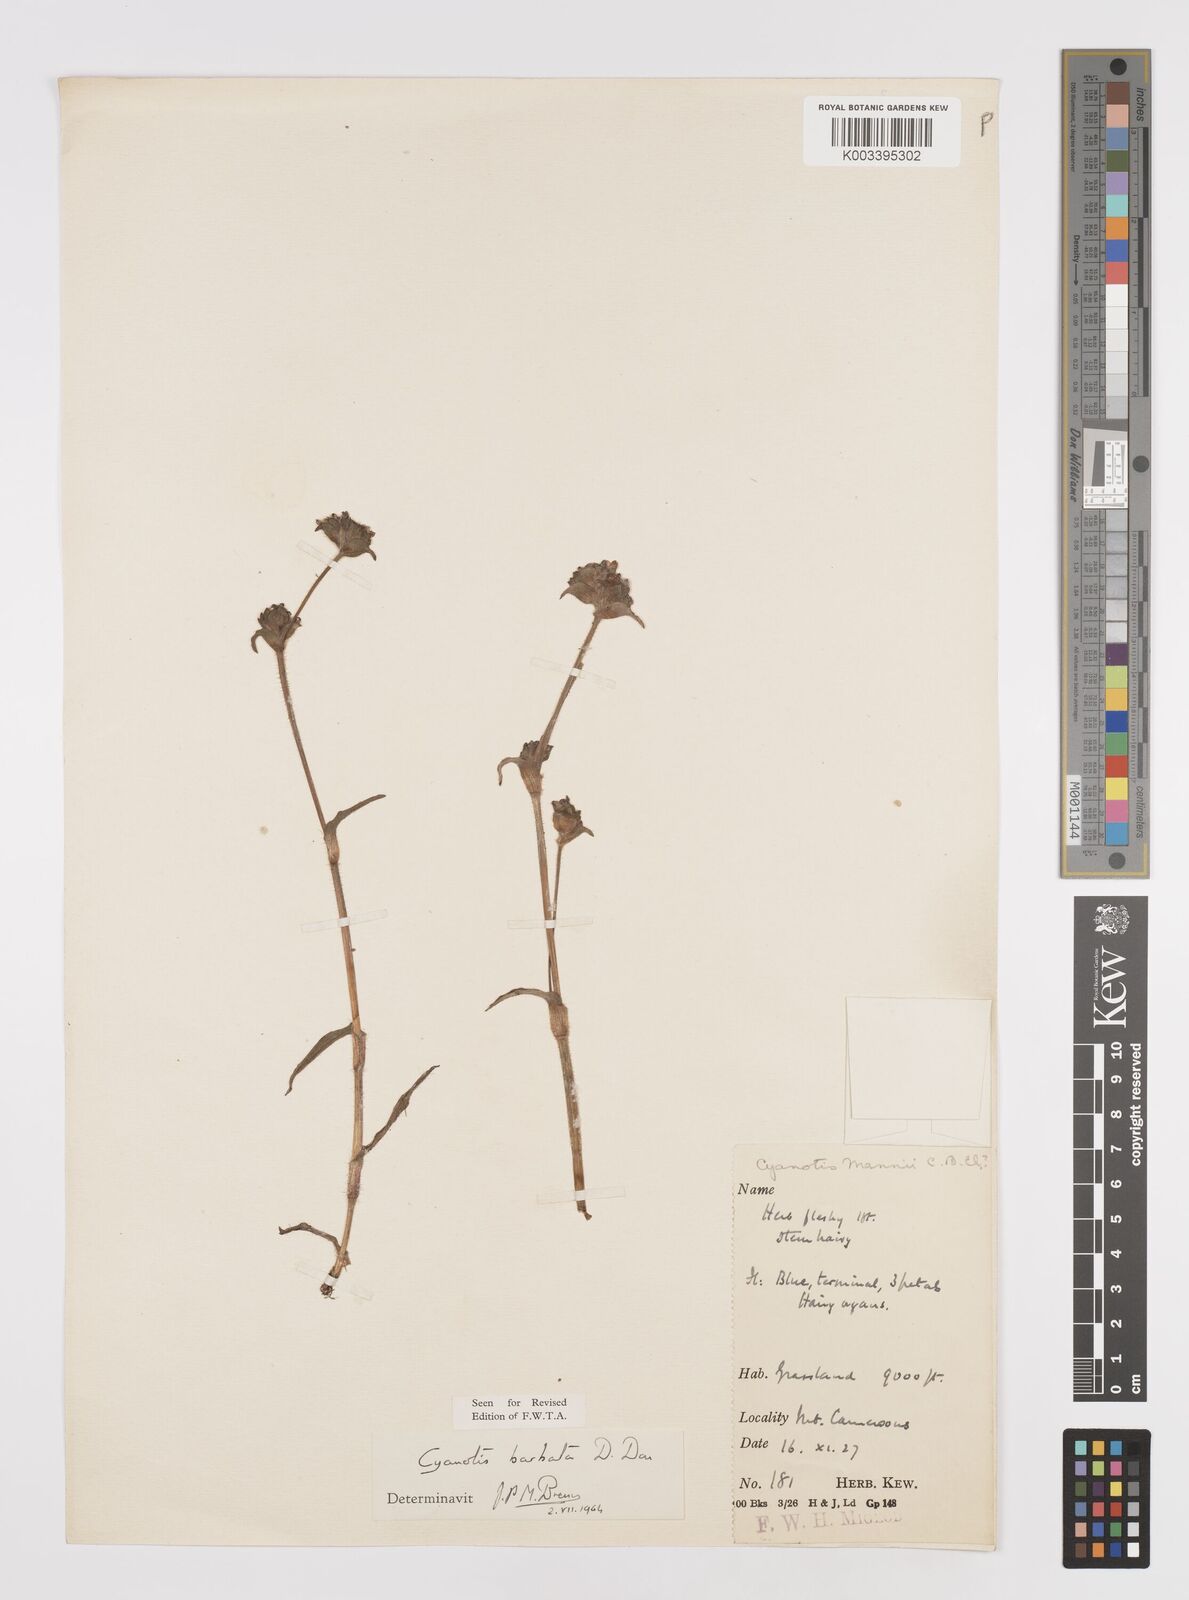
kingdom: Plantae
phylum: Tracheophyta
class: Liliopsida
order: Commelinales
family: Commelinaceae
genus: Cyanotis
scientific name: Cyanotis vaga
